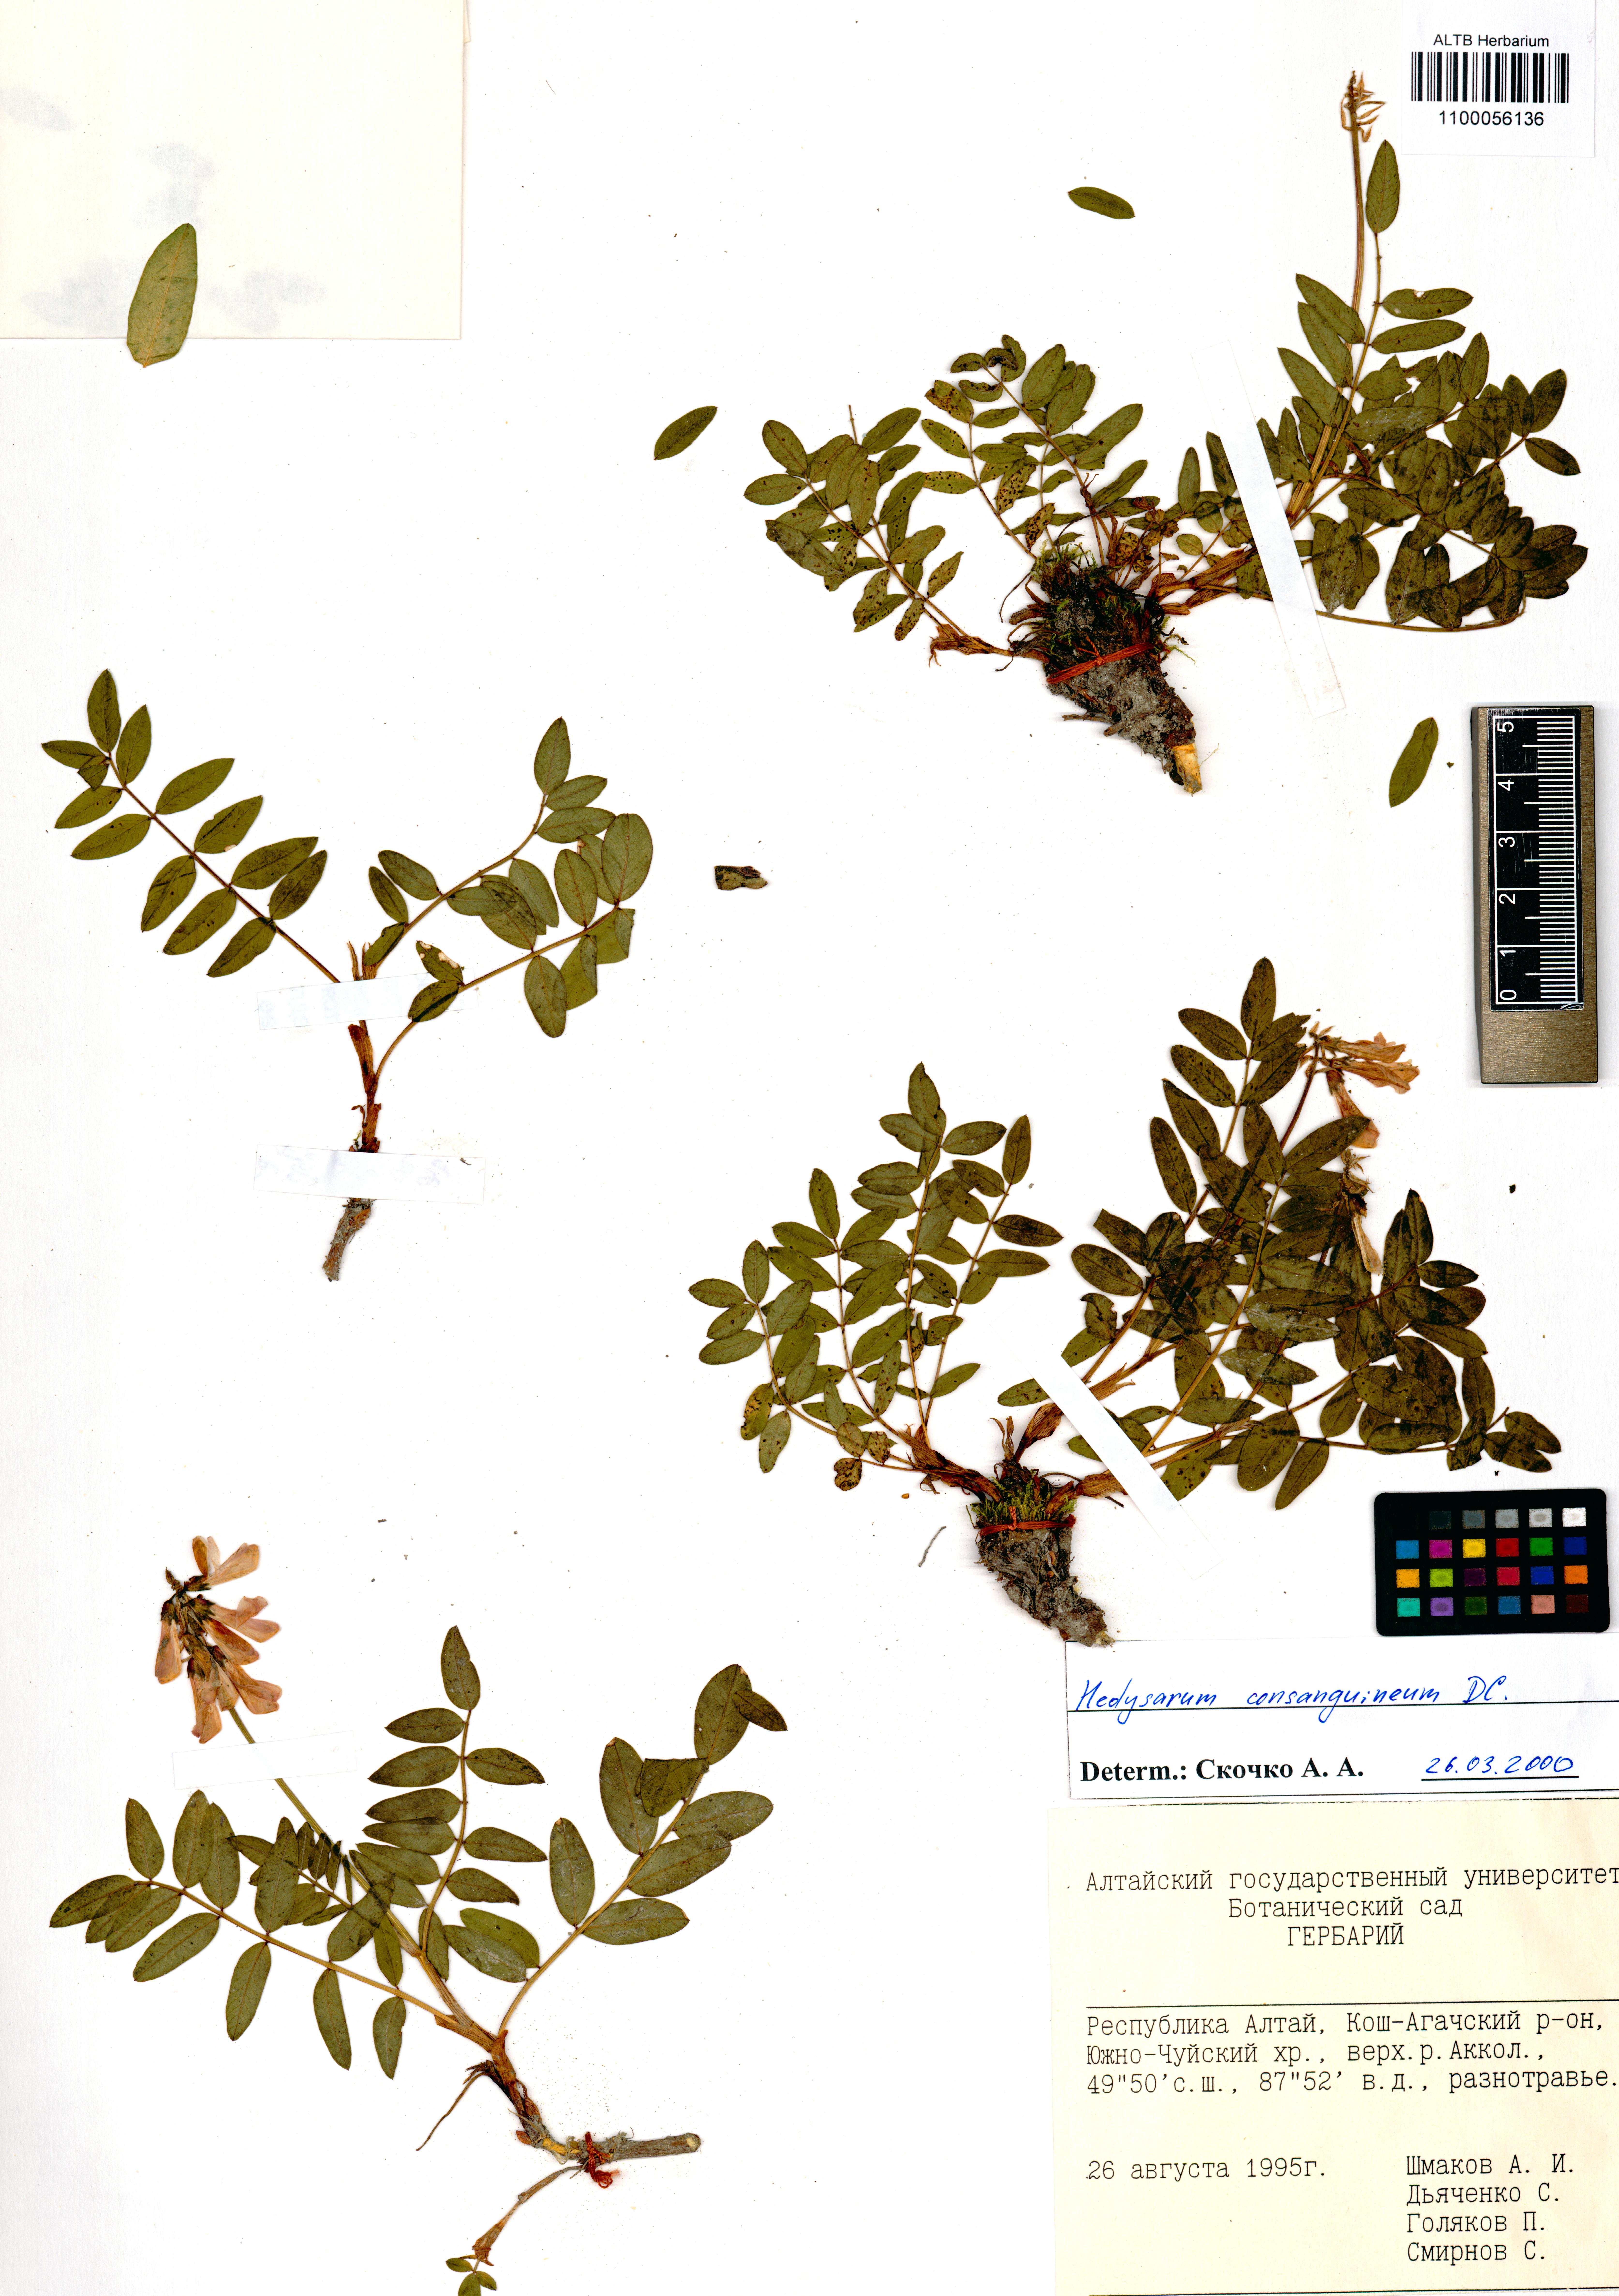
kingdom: Plantae
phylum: Tracheophyta
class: Magnoliopsida
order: Fabales
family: Fabaceae
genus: Hedysarum
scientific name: Hedysarum consanguineum
